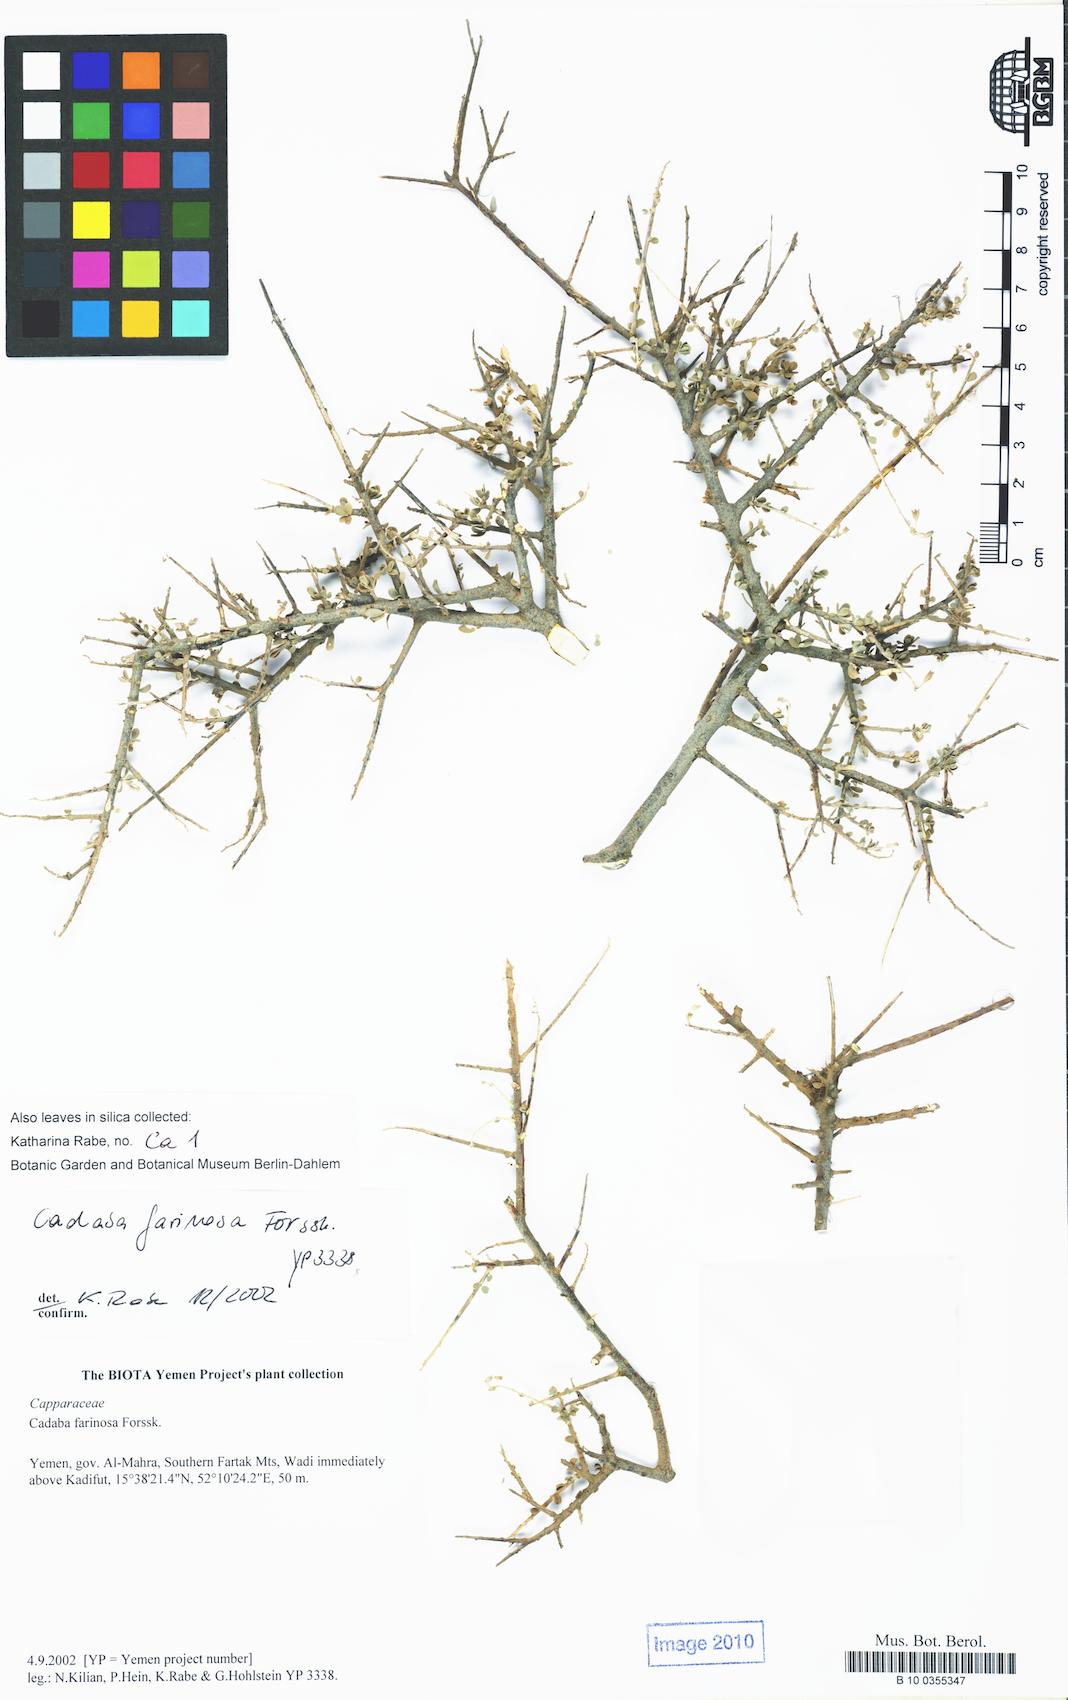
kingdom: Plantae
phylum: Tracheophyta
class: Magnoliopsida
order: Brassicales
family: Capparaceae
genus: Cadaba
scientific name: Cadaba farinosa
